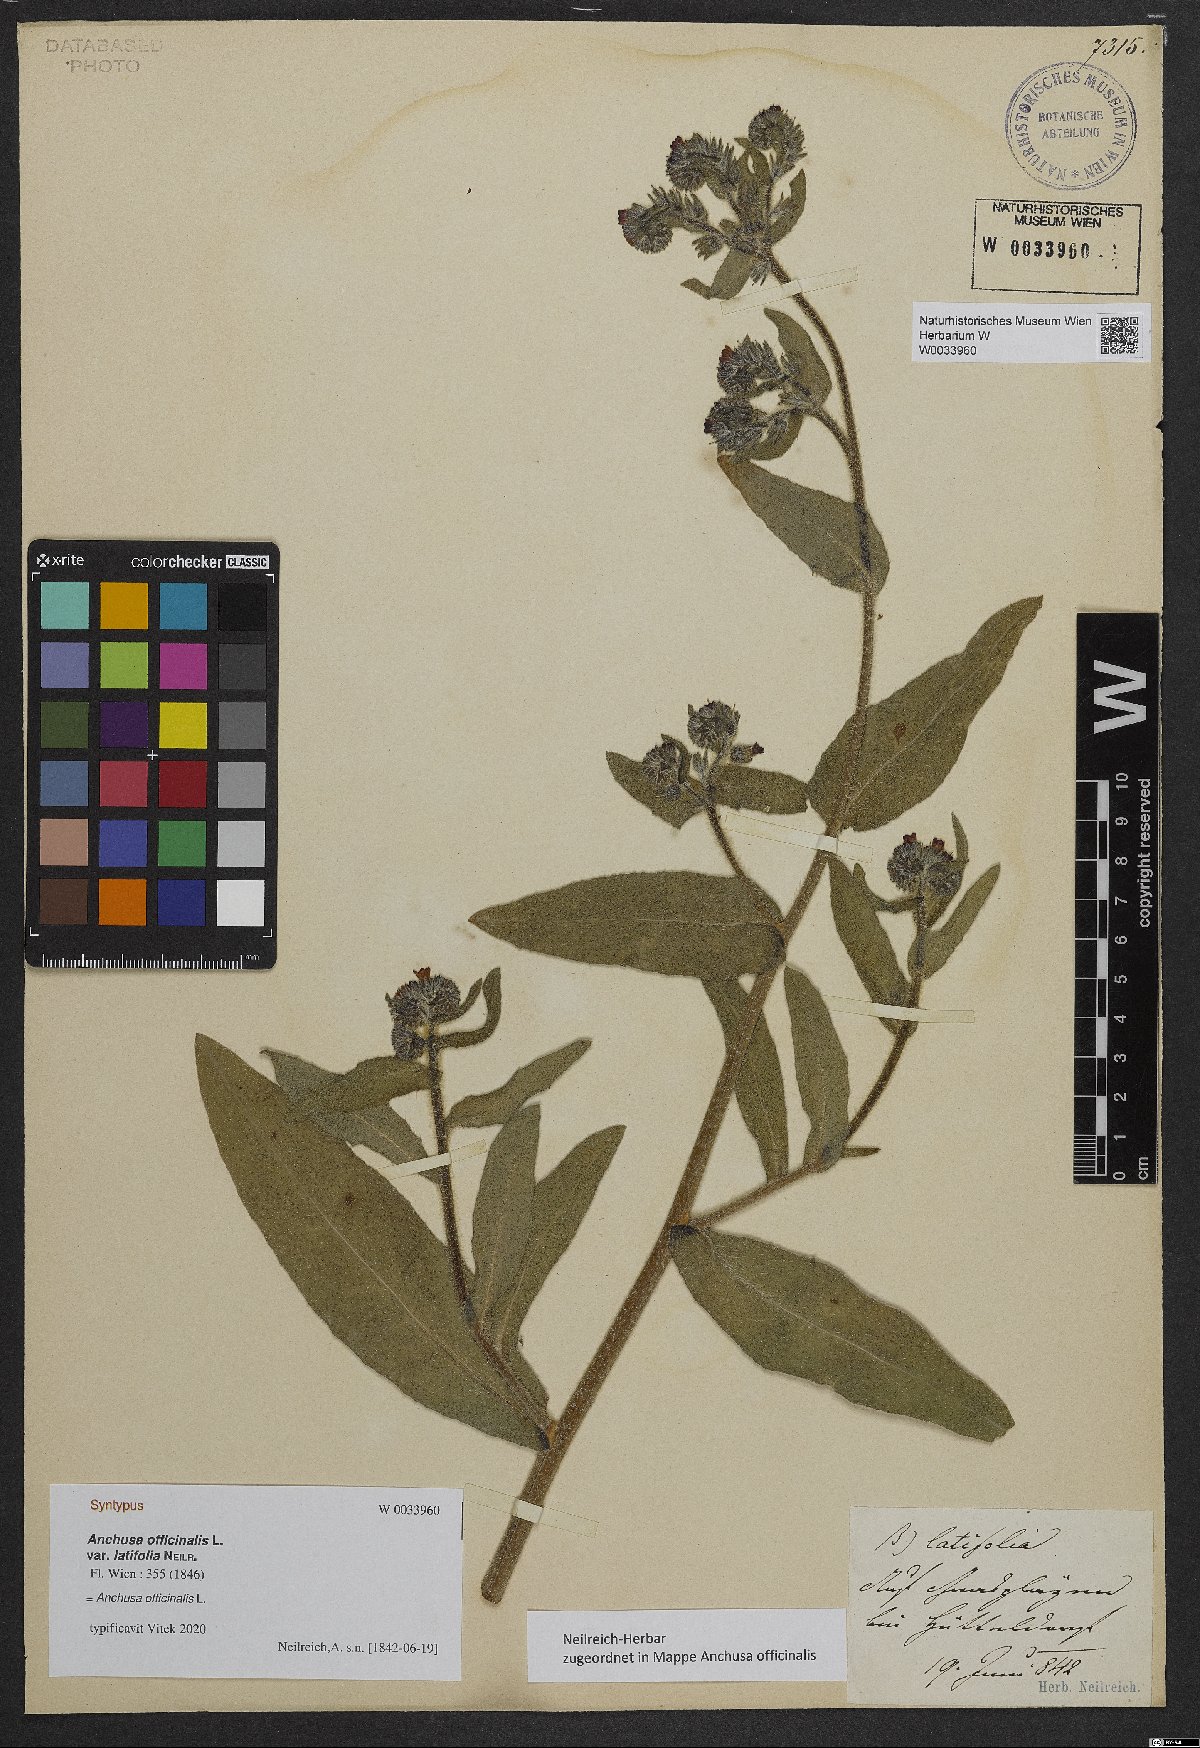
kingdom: Plantae
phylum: Tracheophyta
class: Magnoliopsida
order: Boraginales
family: Boraginaceae
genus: Anchusa
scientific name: Anchusa officinalis
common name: Alkanet
